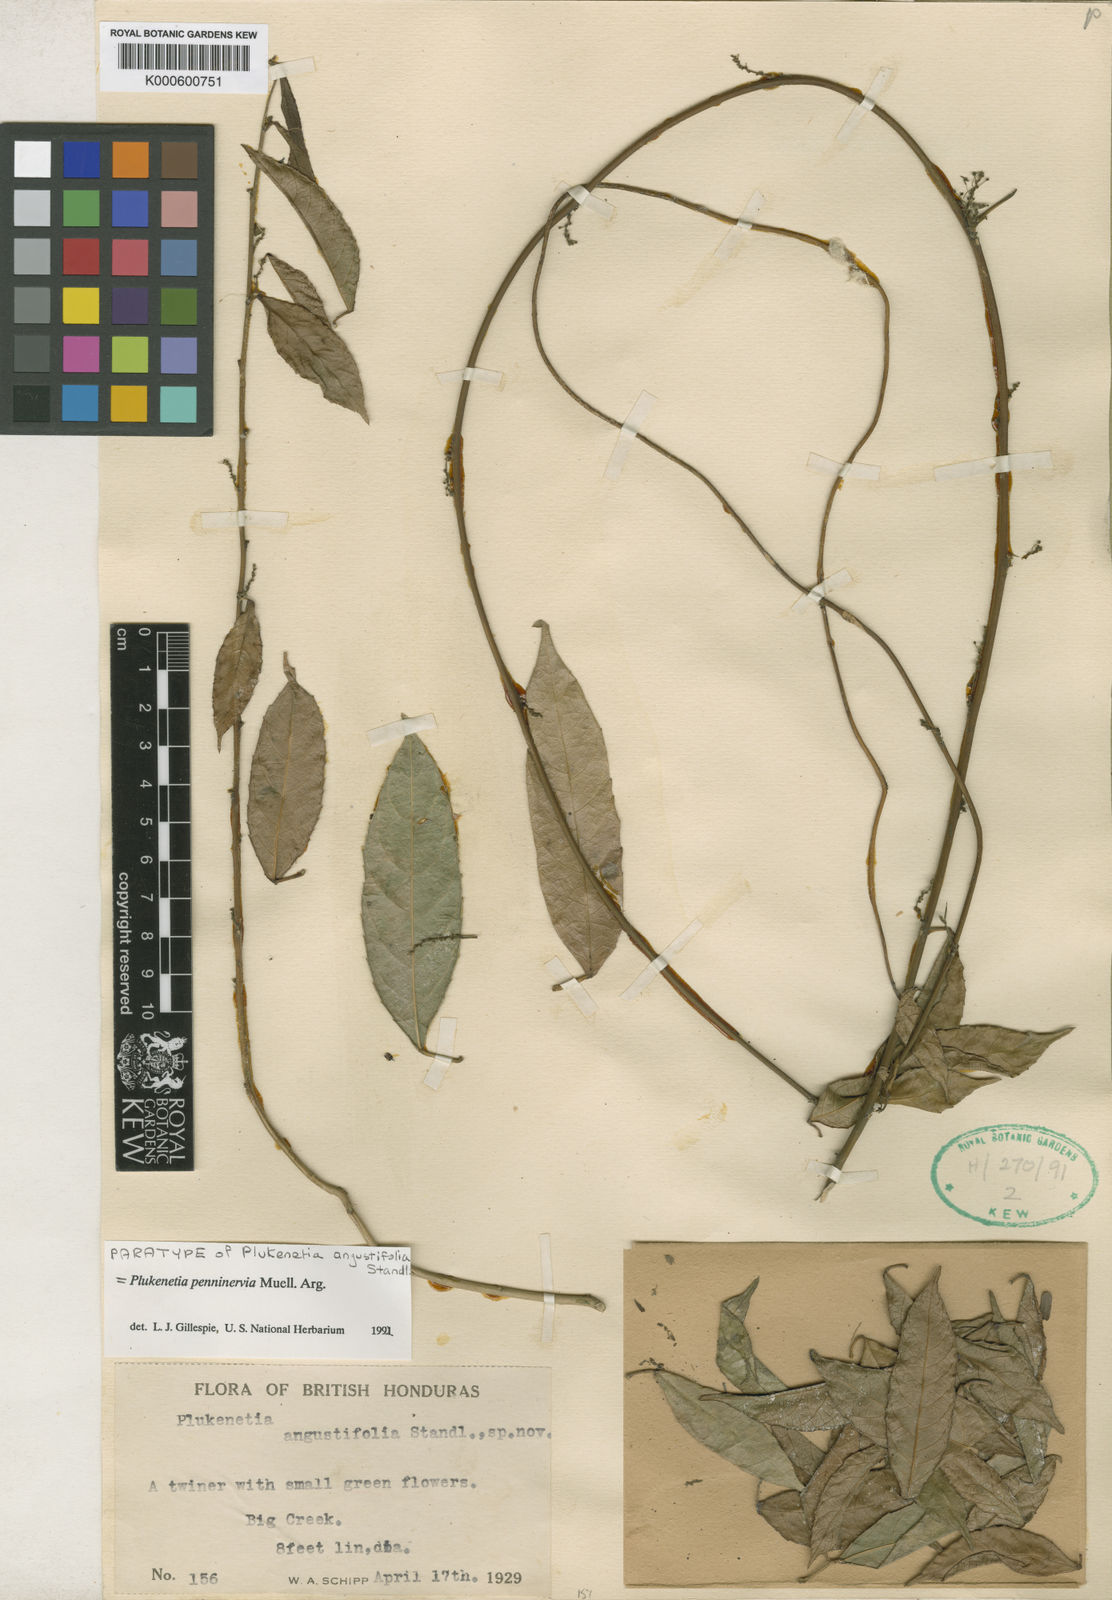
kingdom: Plantae
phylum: Tracheophyta
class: Magnoliopsida
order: Malpighiales
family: Euphorbiaceae
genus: Plukenetia
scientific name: Plukenetia
